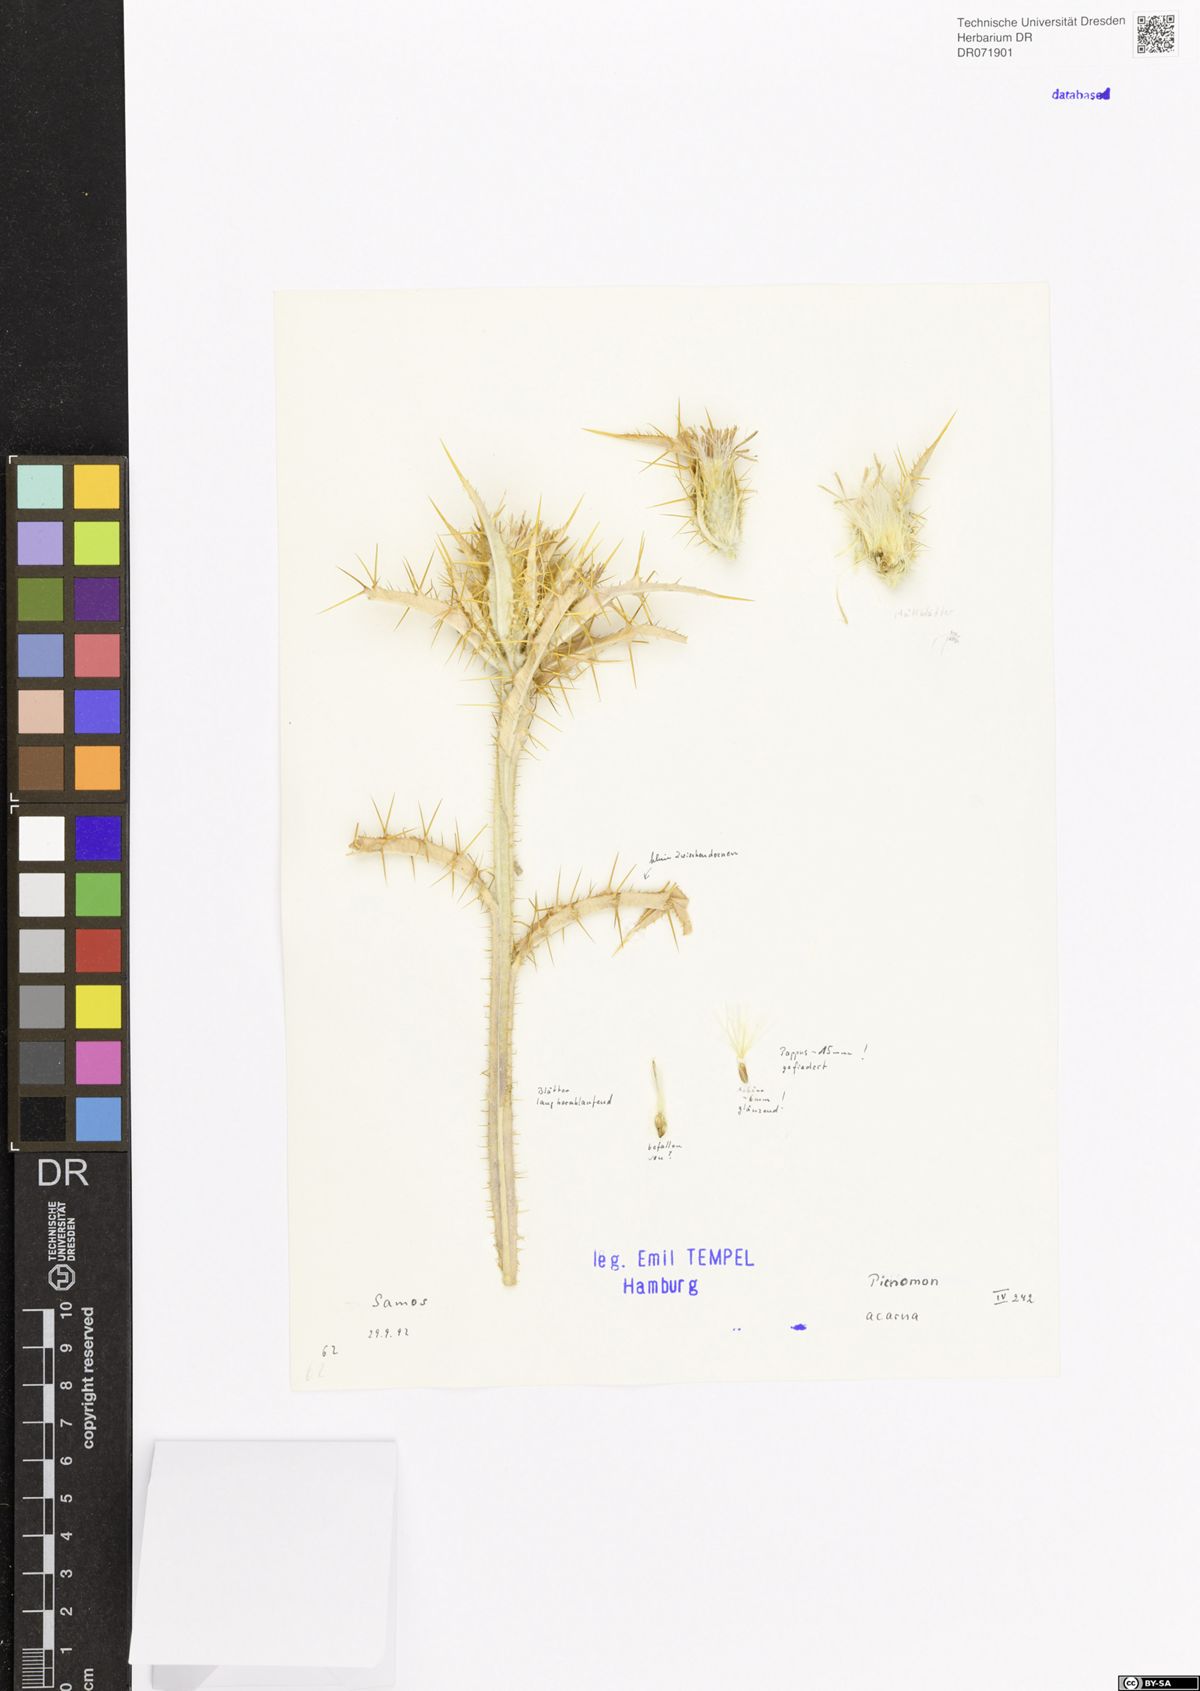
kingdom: Plantae
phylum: Tracheophyta
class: Magnoliopsida
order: Asterales
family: Asteraceae
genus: Picnomon
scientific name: Picnomon acarna
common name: Soldier thistle
